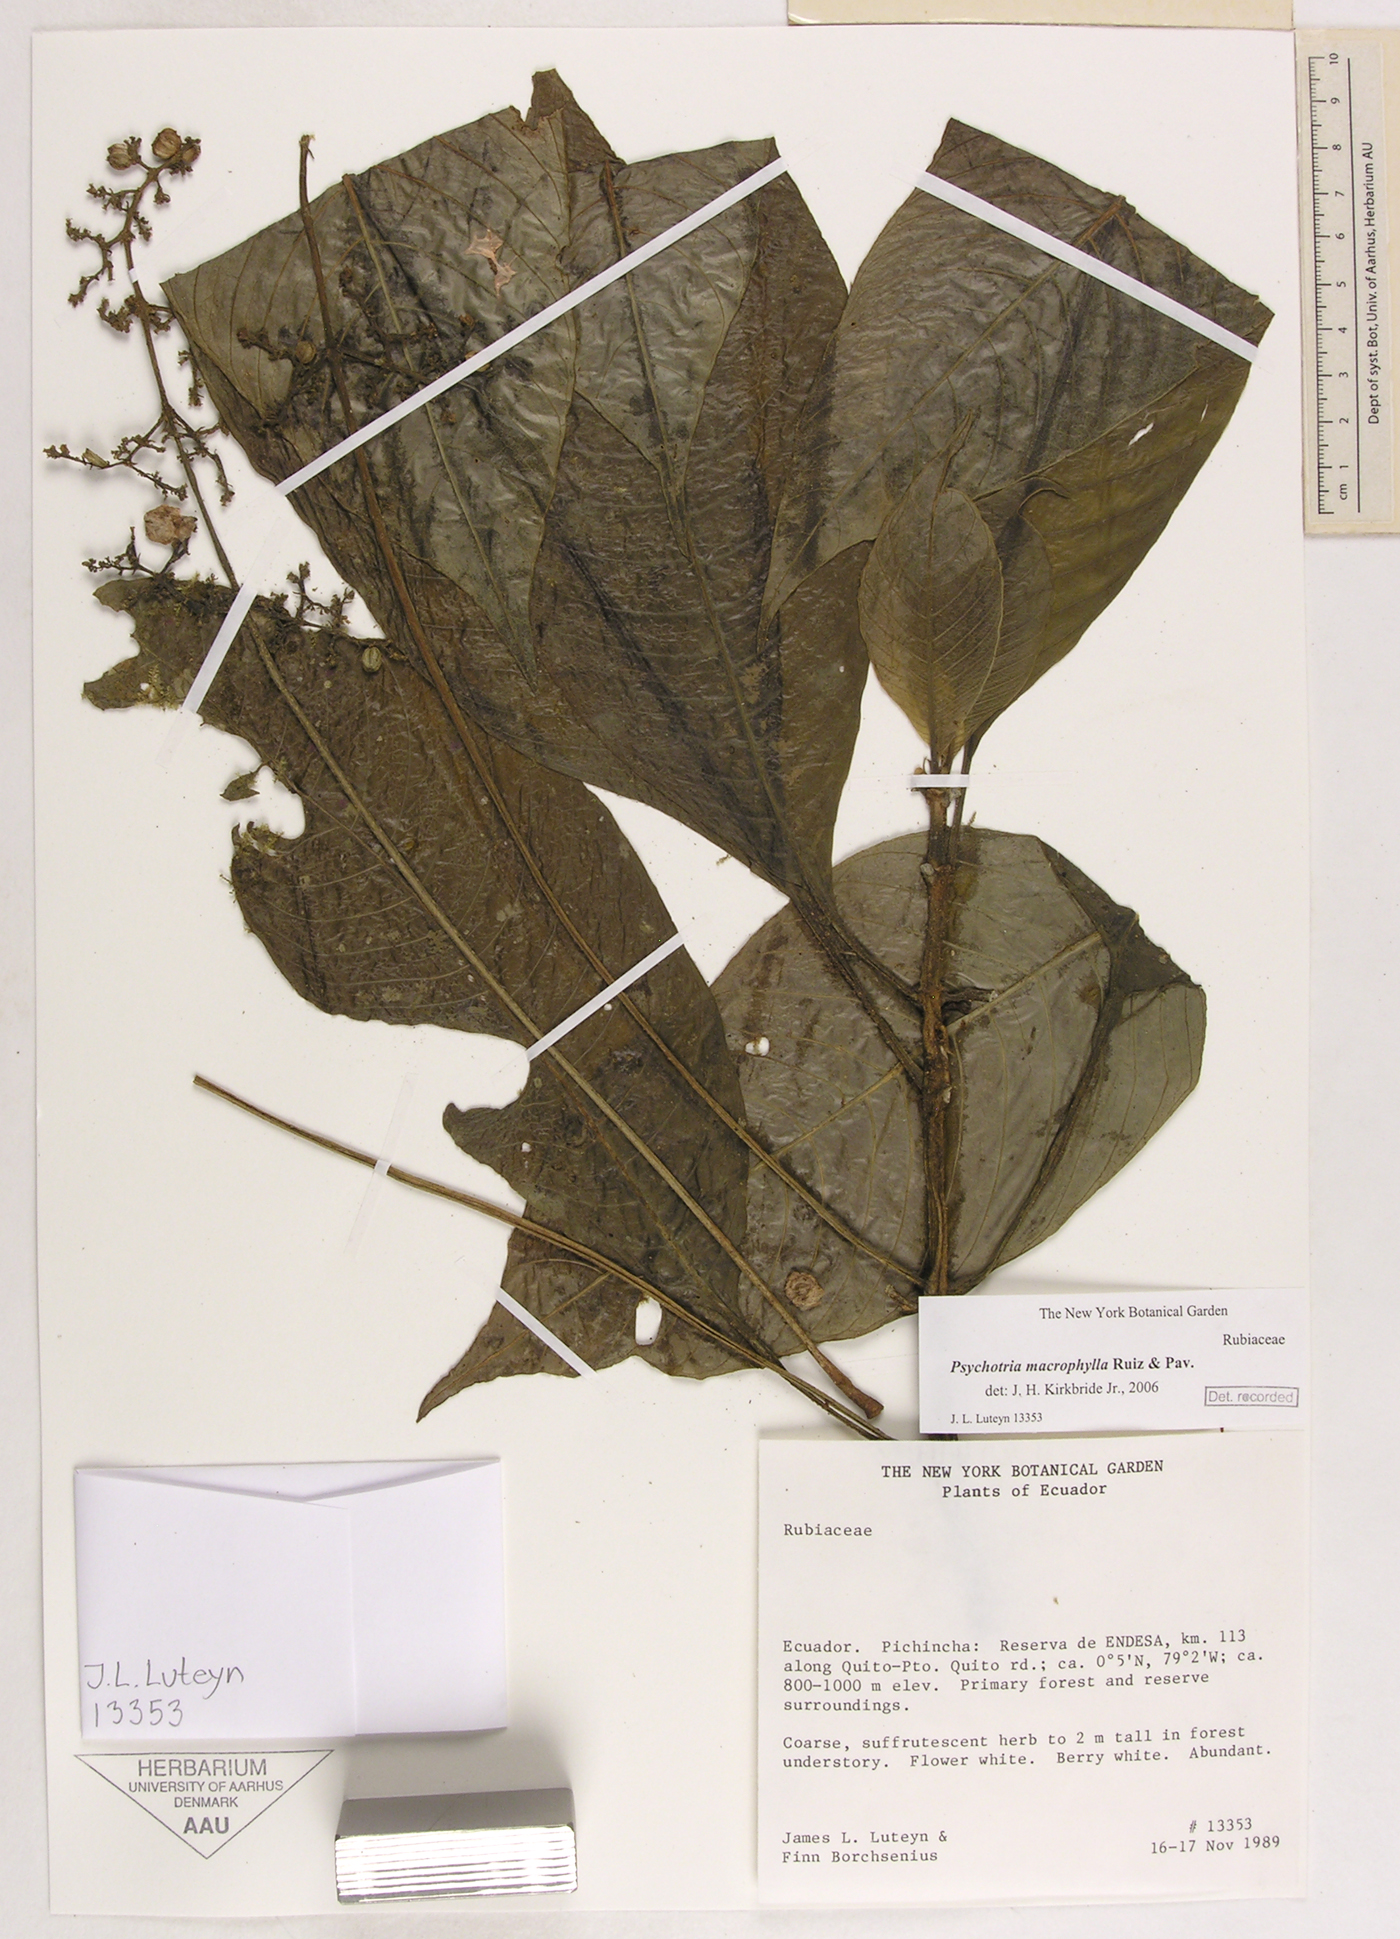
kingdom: Plantae
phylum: Tracheophyta
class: Magnoliopsida
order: Gentianales
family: Rubiaceae
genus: Notopleura
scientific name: Notopleura macrophylla
